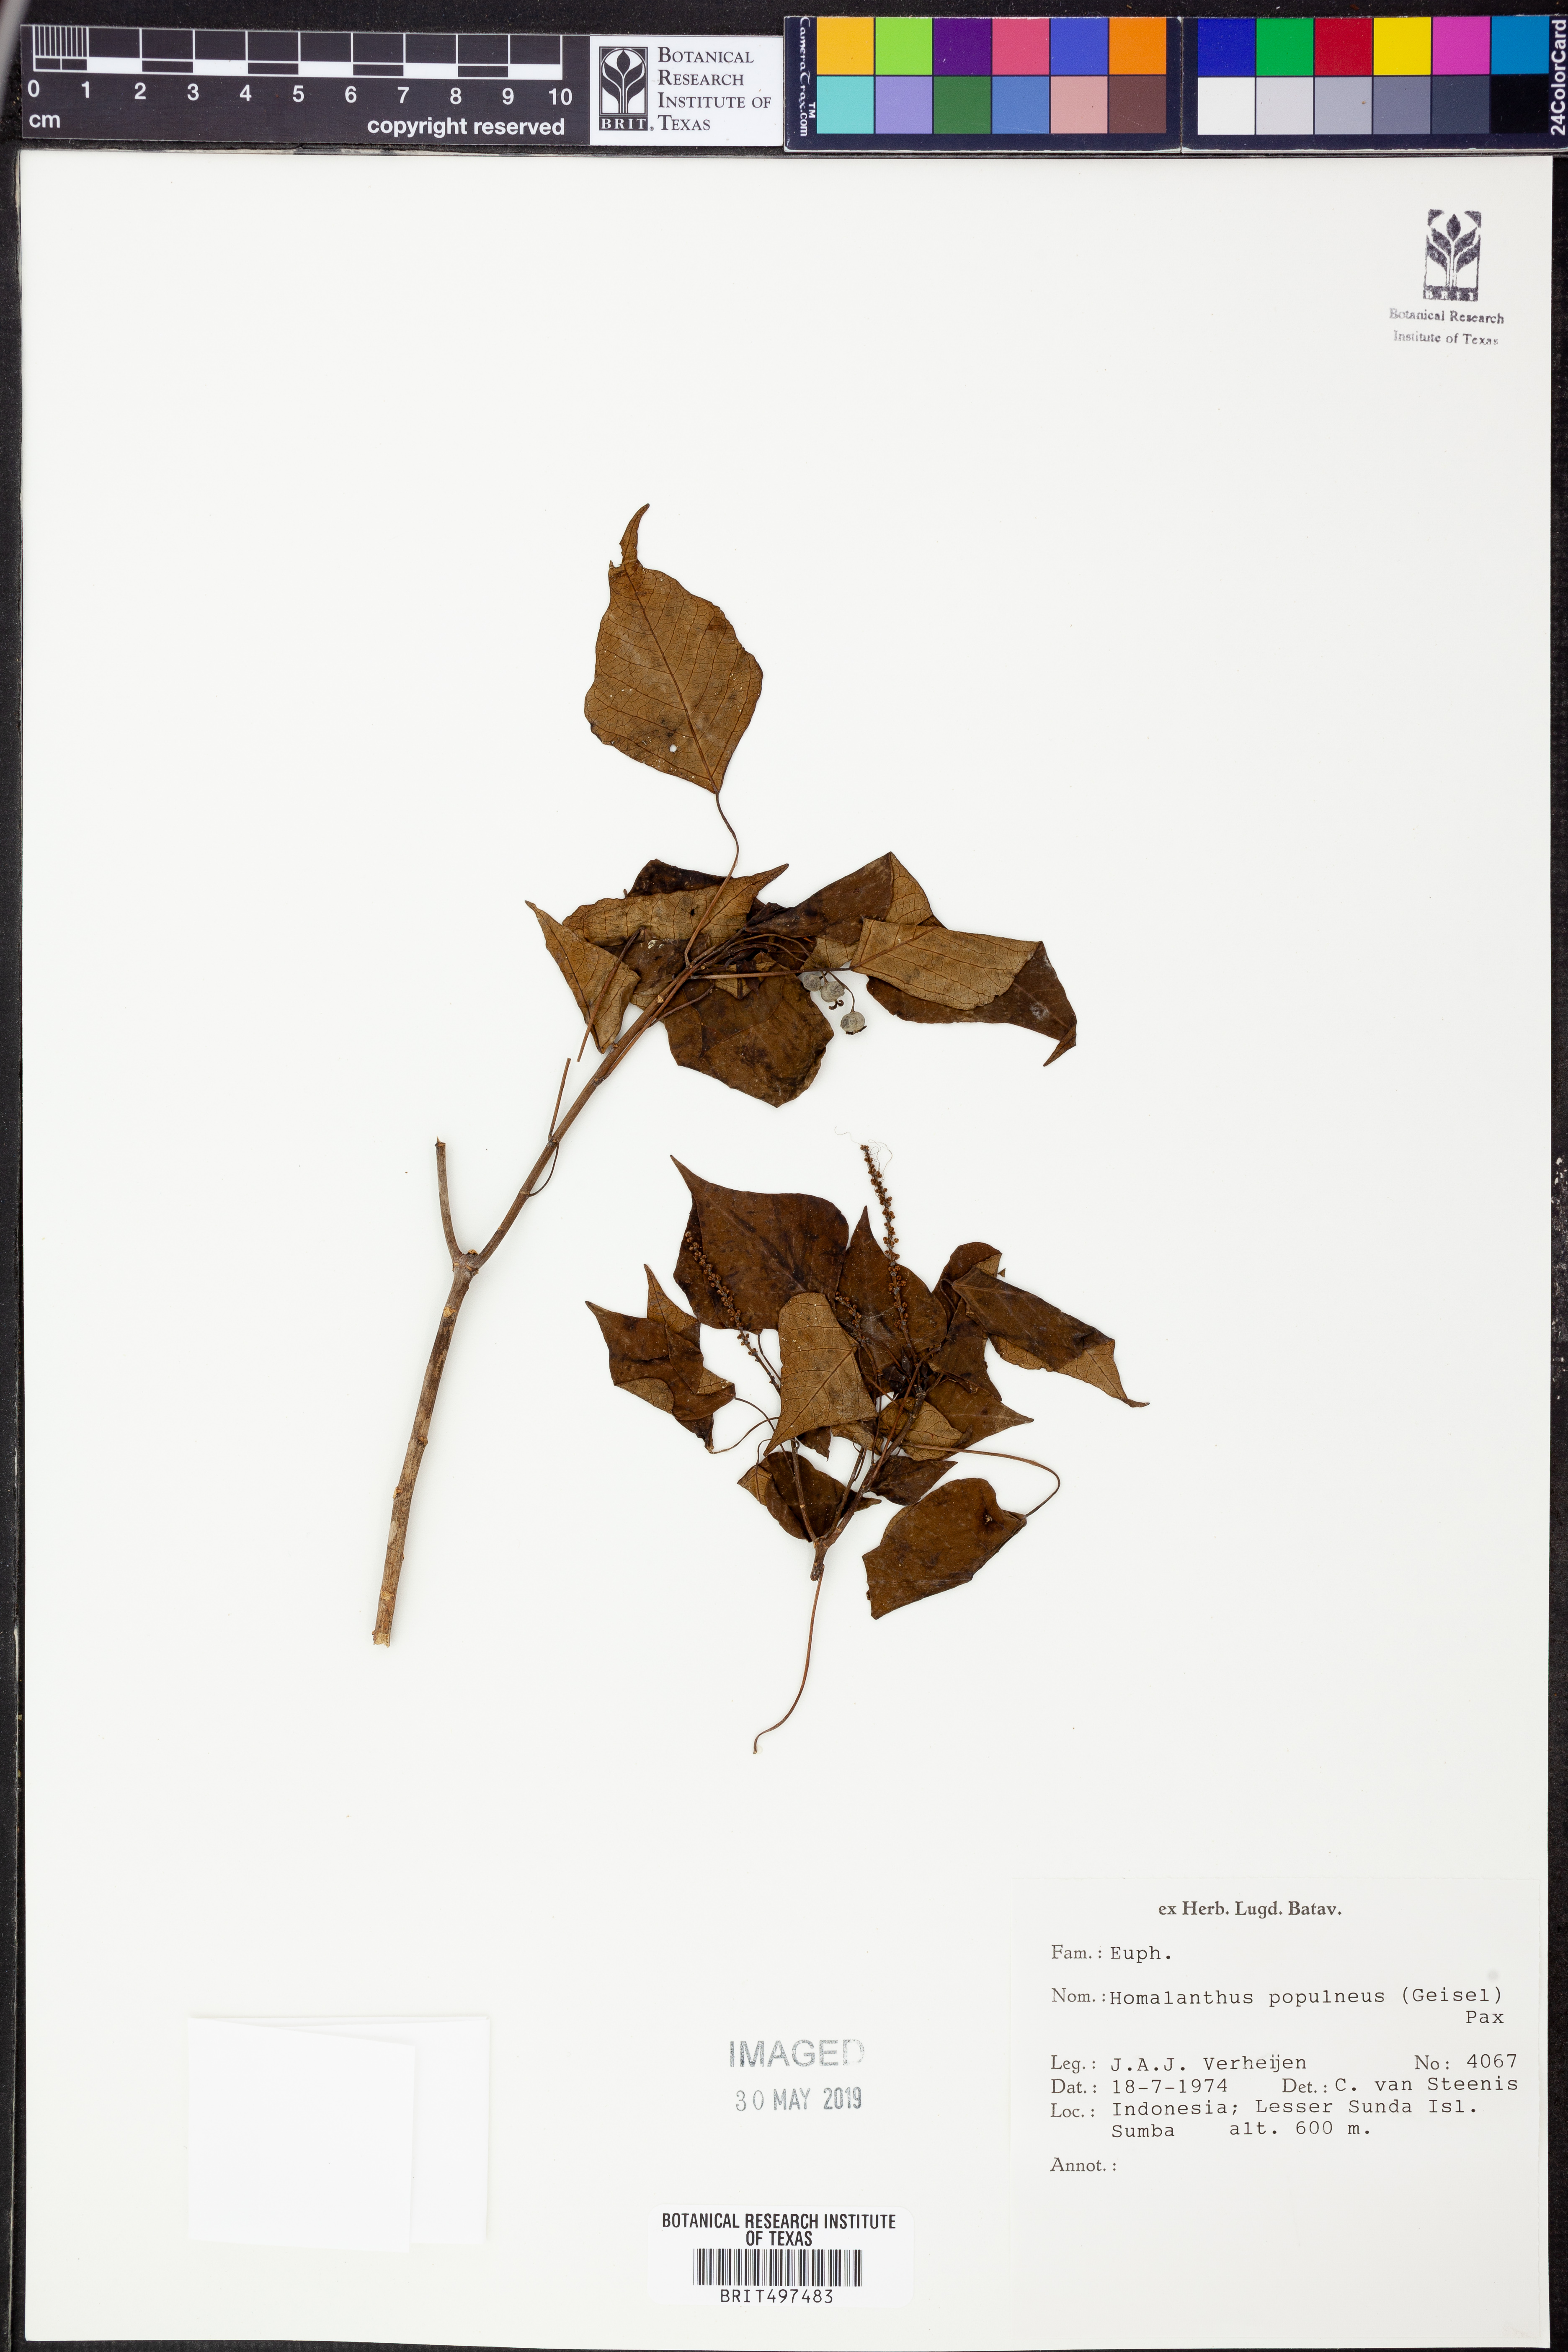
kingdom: Plantae
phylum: Tracheophyta
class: Magnoliopsida
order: Malpighiales
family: Euphorbiaceae
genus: Homalanthus
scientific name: Homalanthus populneus
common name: Spurge
